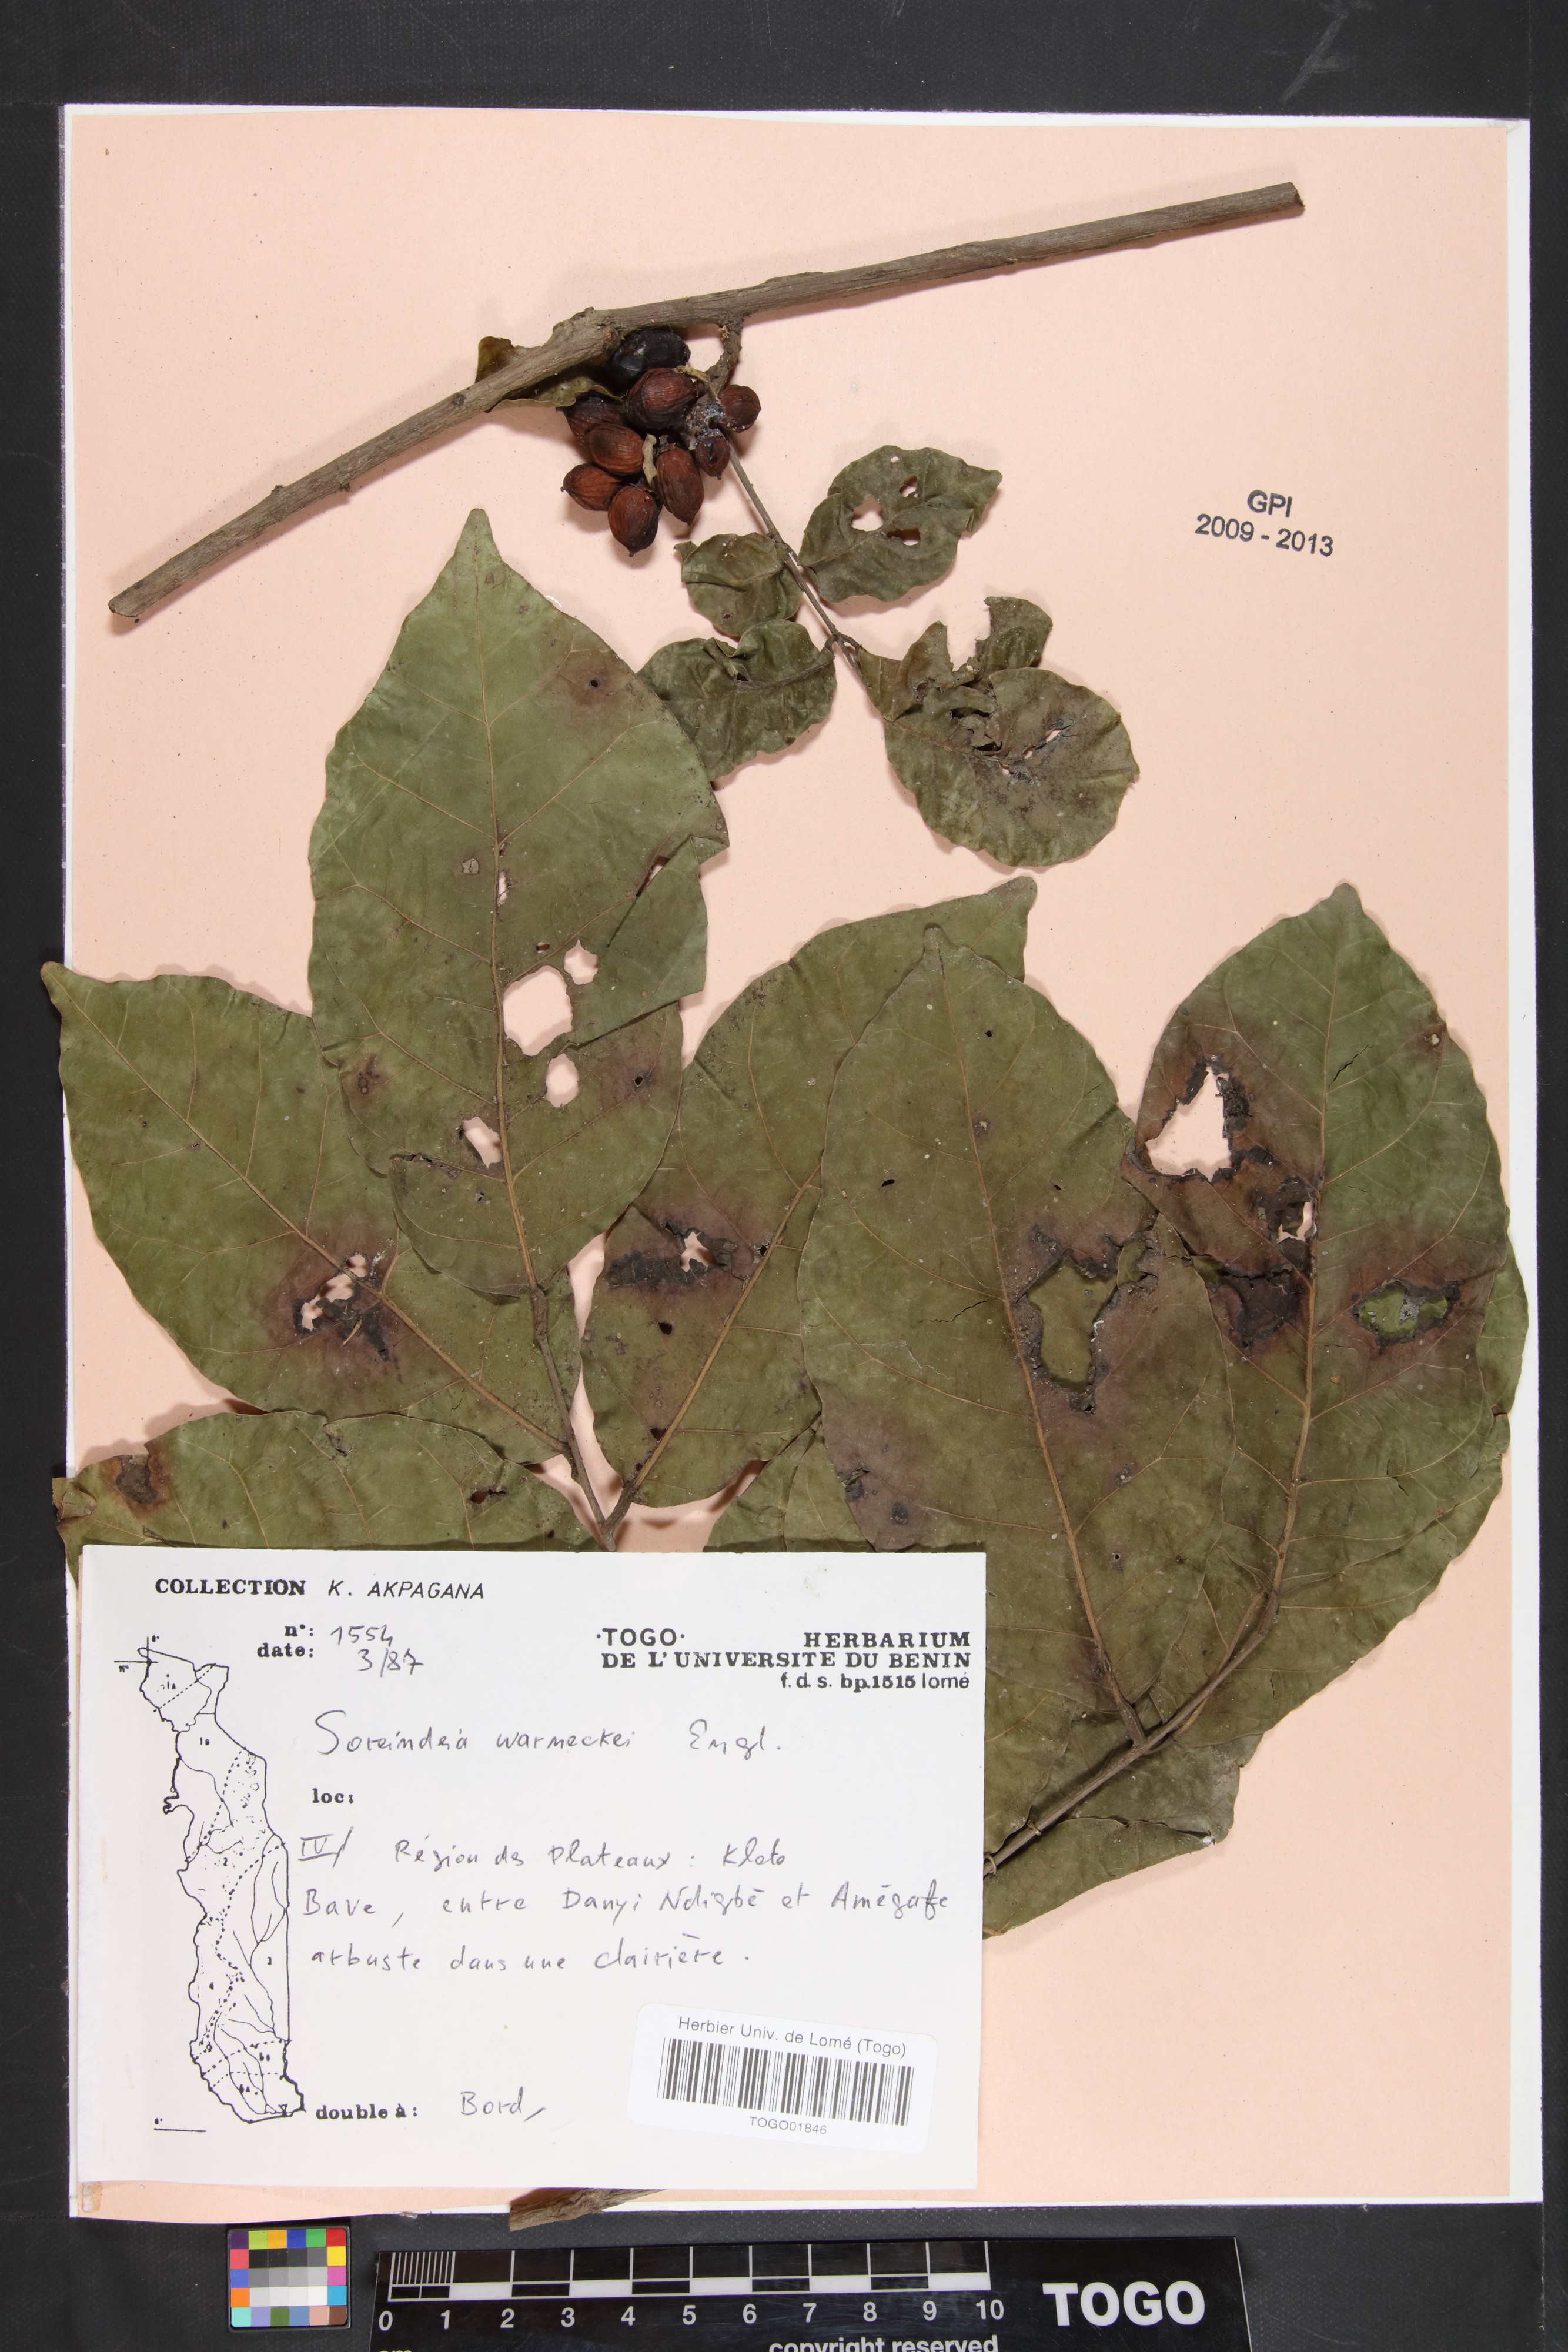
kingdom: Plantae
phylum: Tracheophyta
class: Magnoliopsida
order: Sapindales
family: Anacardiaceae
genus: Sorindeia
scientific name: Sorindeia grandifolia
